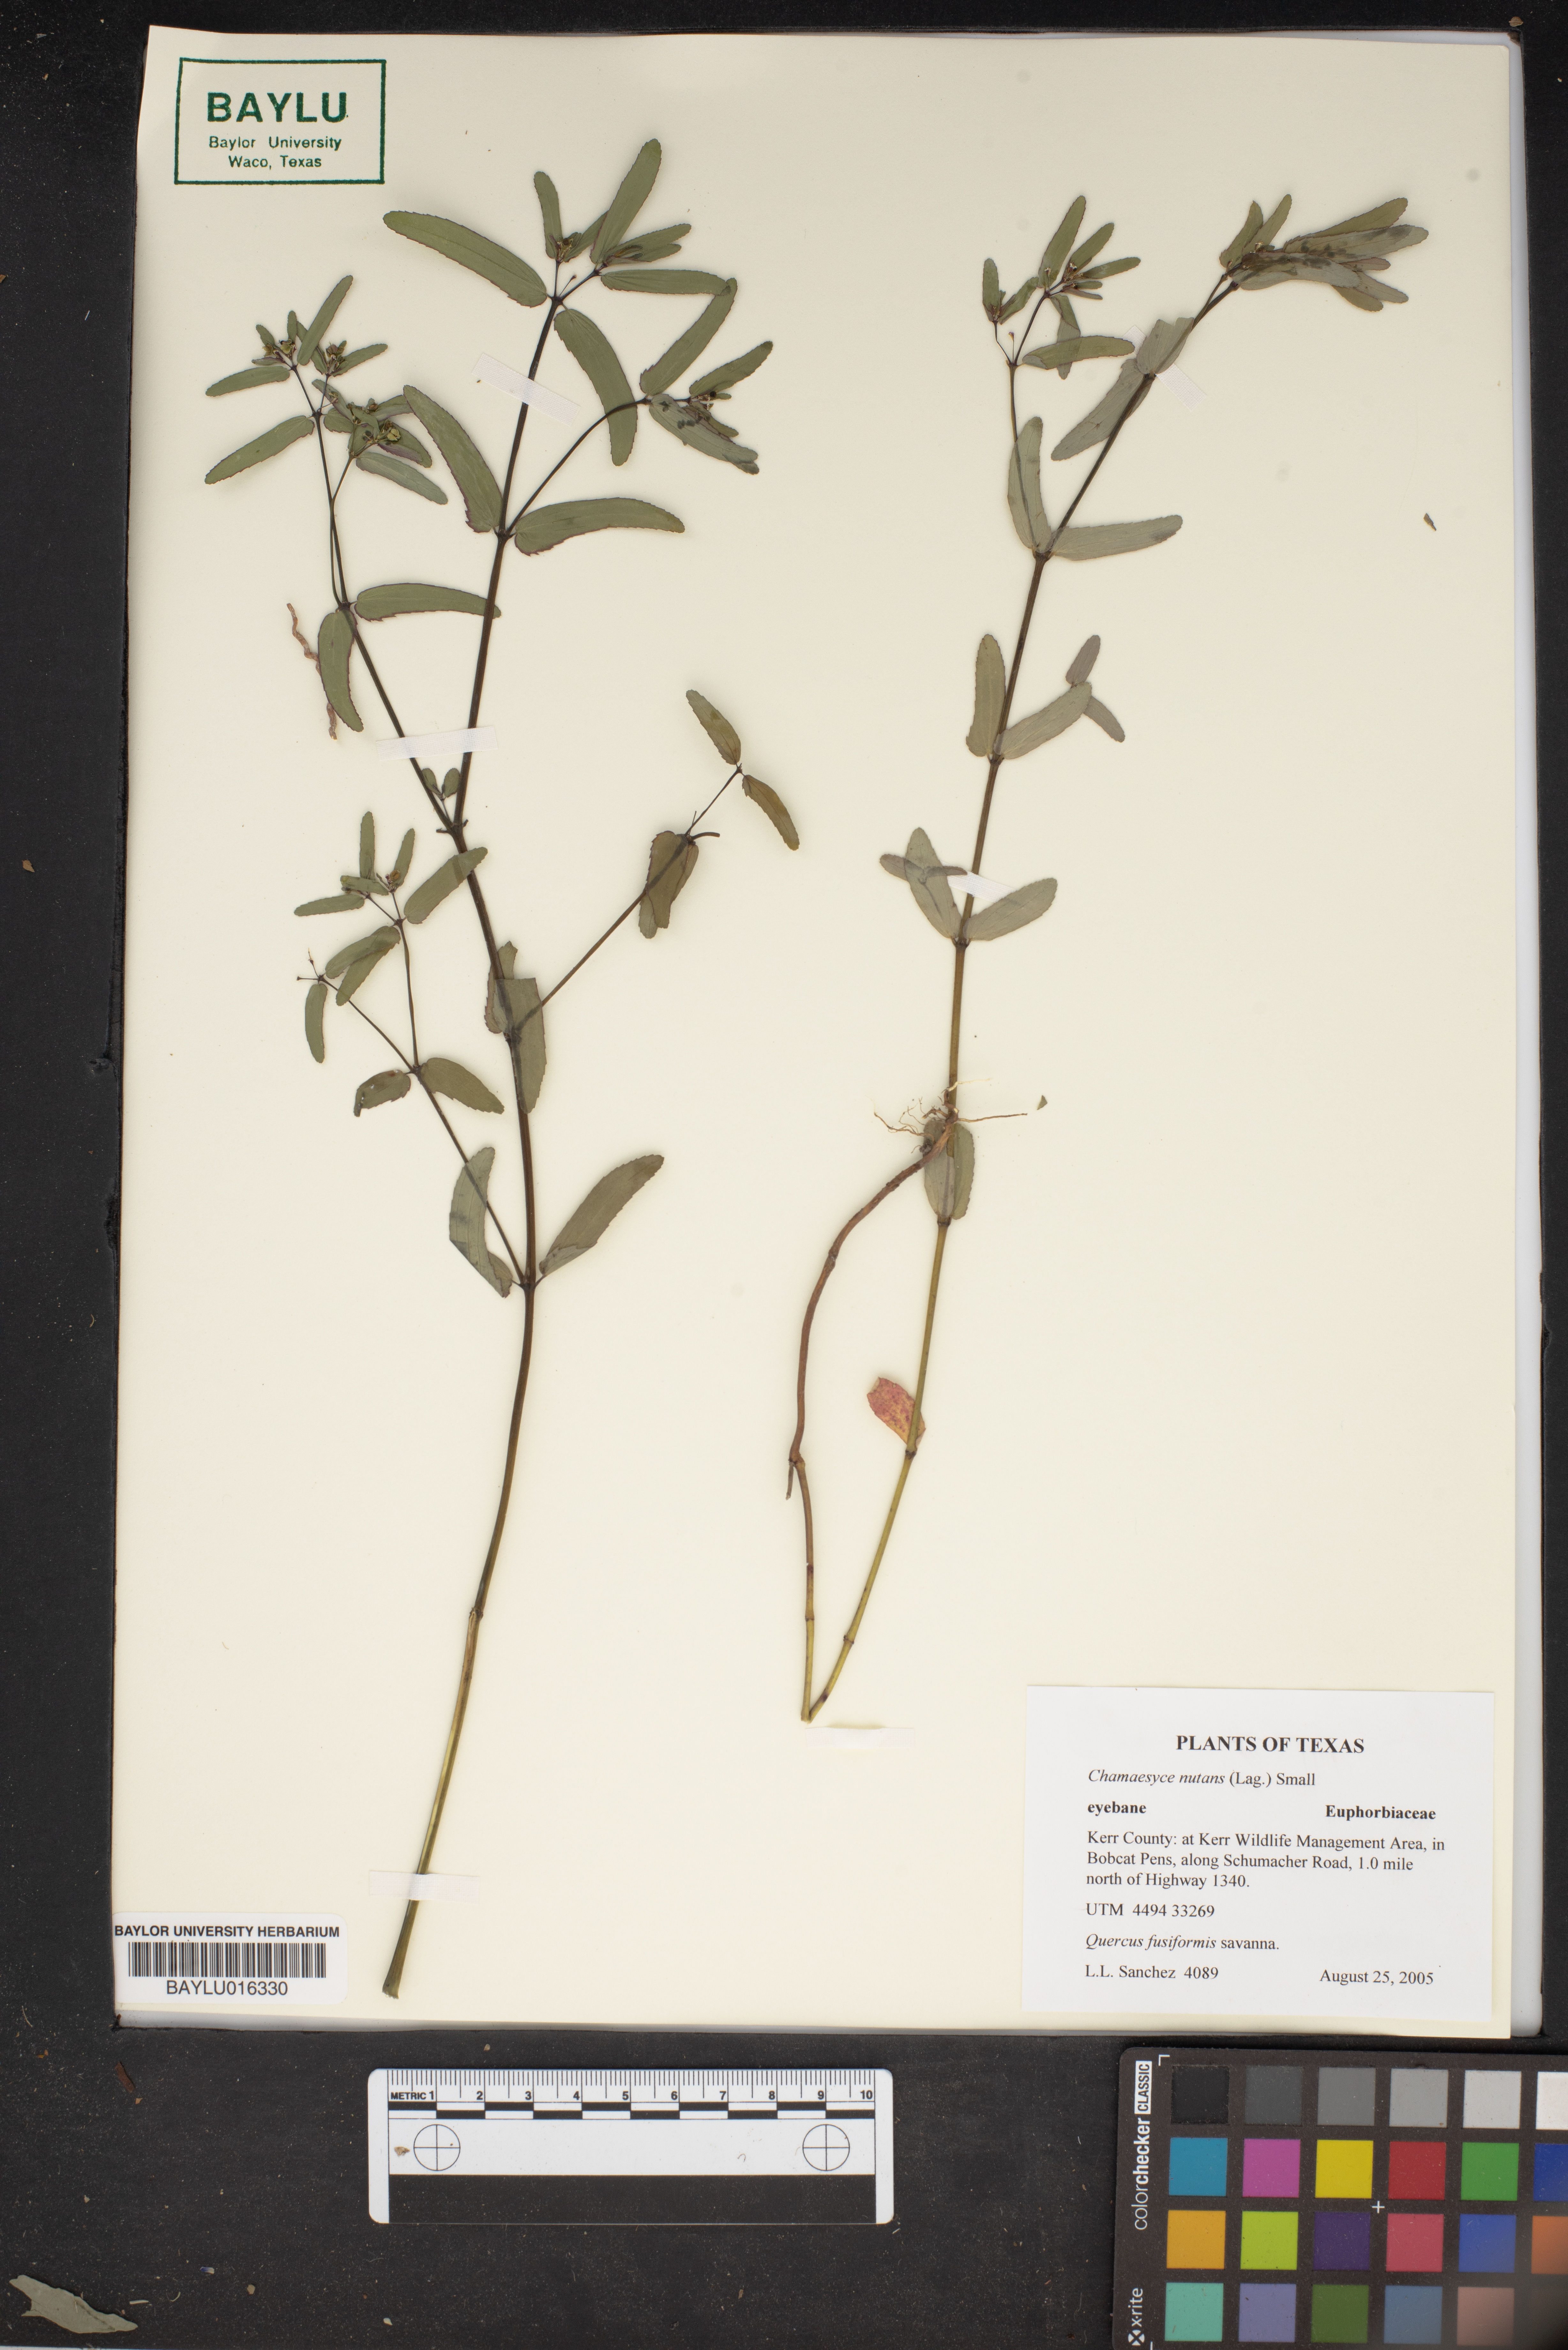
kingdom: Plantae
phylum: Tracheophyta
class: Magnoliopsida
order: Malpighiales
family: Euphorbiaceae
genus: Euphorbia
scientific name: Euphorbia nutans
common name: Eyebane
